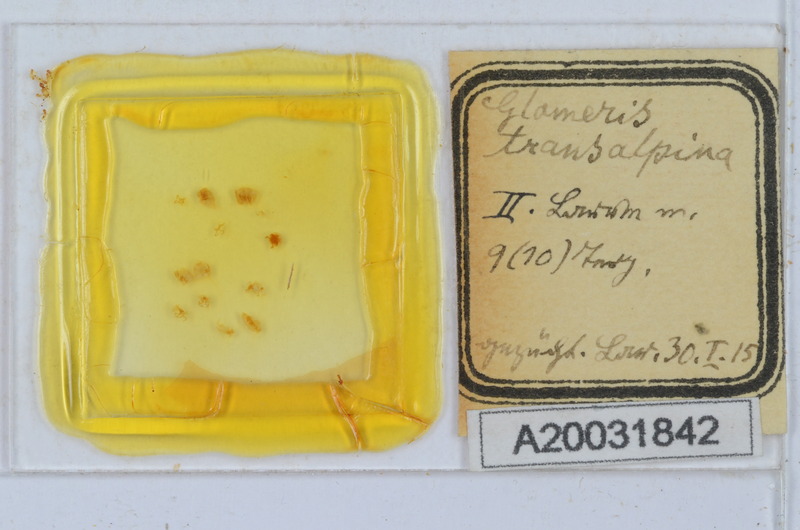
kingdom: Animalia
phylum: Arthropoda
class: Diplopoda
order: Glomerida
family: Glomeridae
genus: Glomeris
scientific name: Glomeris transalpina
